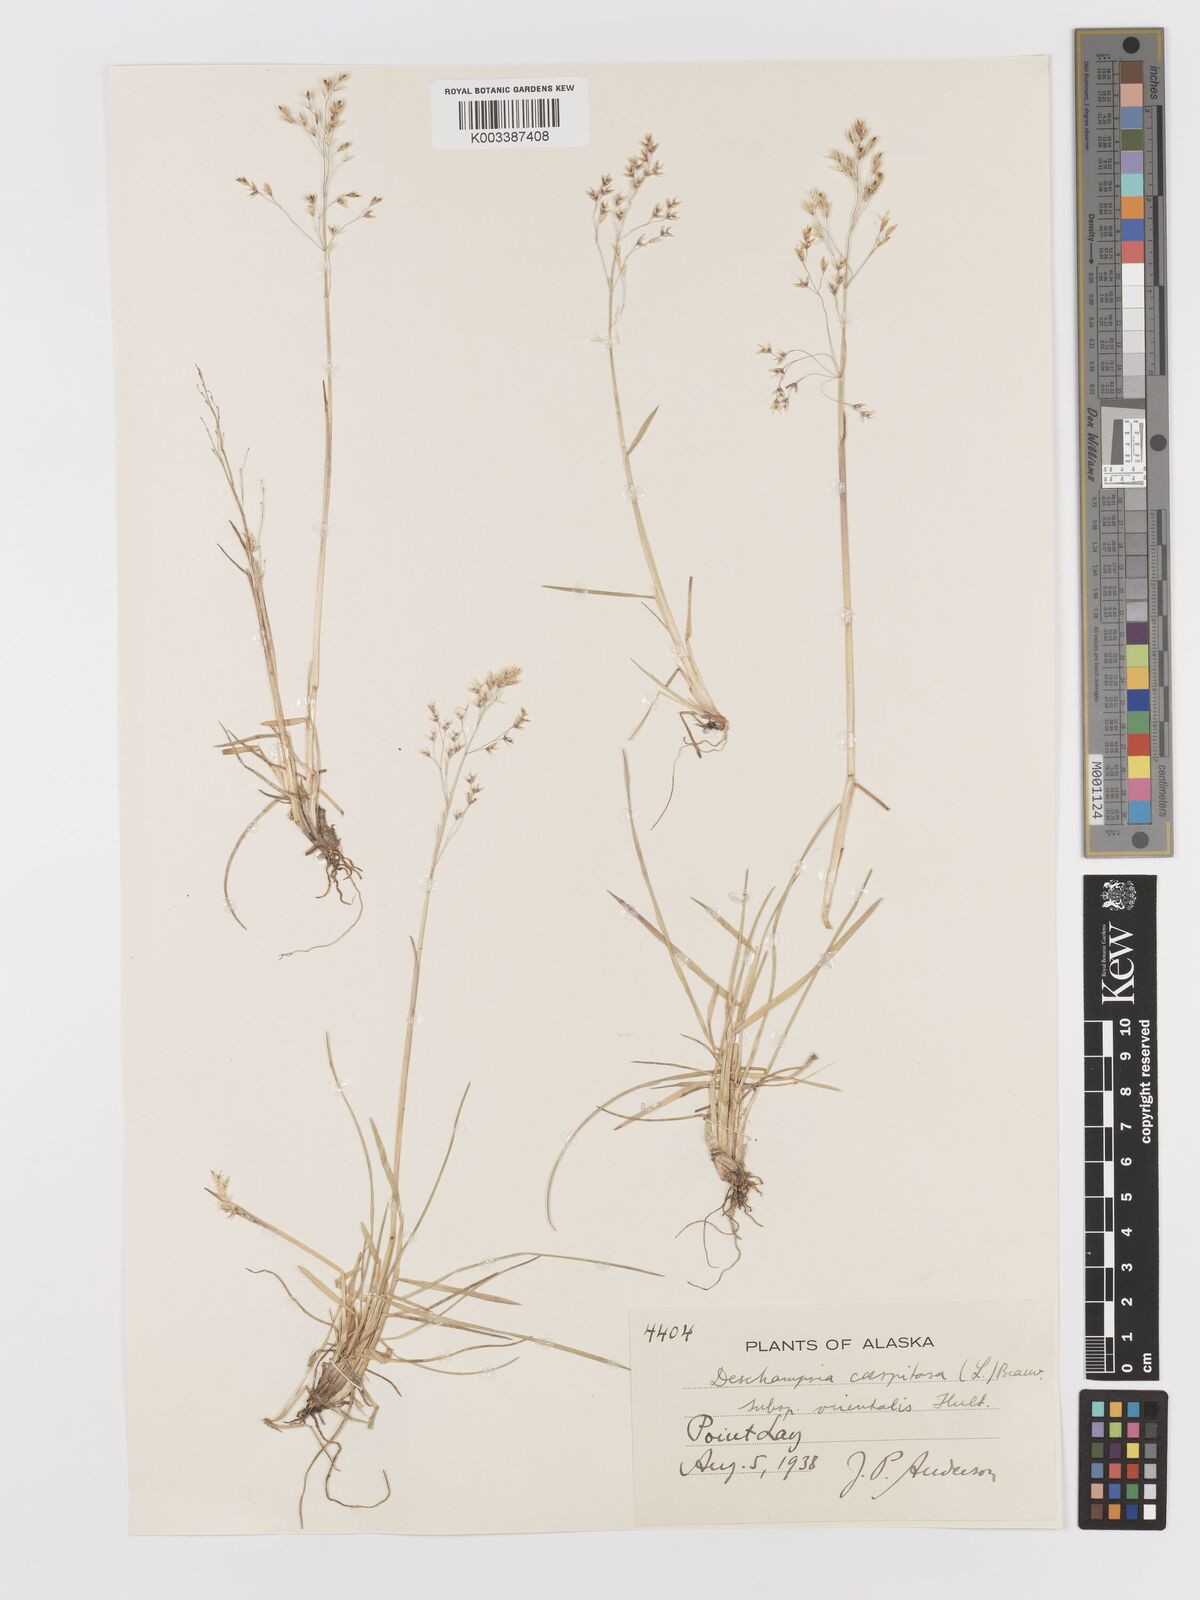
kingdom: Plantae
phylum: Tracheophyta
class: Liliopsida
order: Poales
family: Poaceae
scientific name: Poaceae
